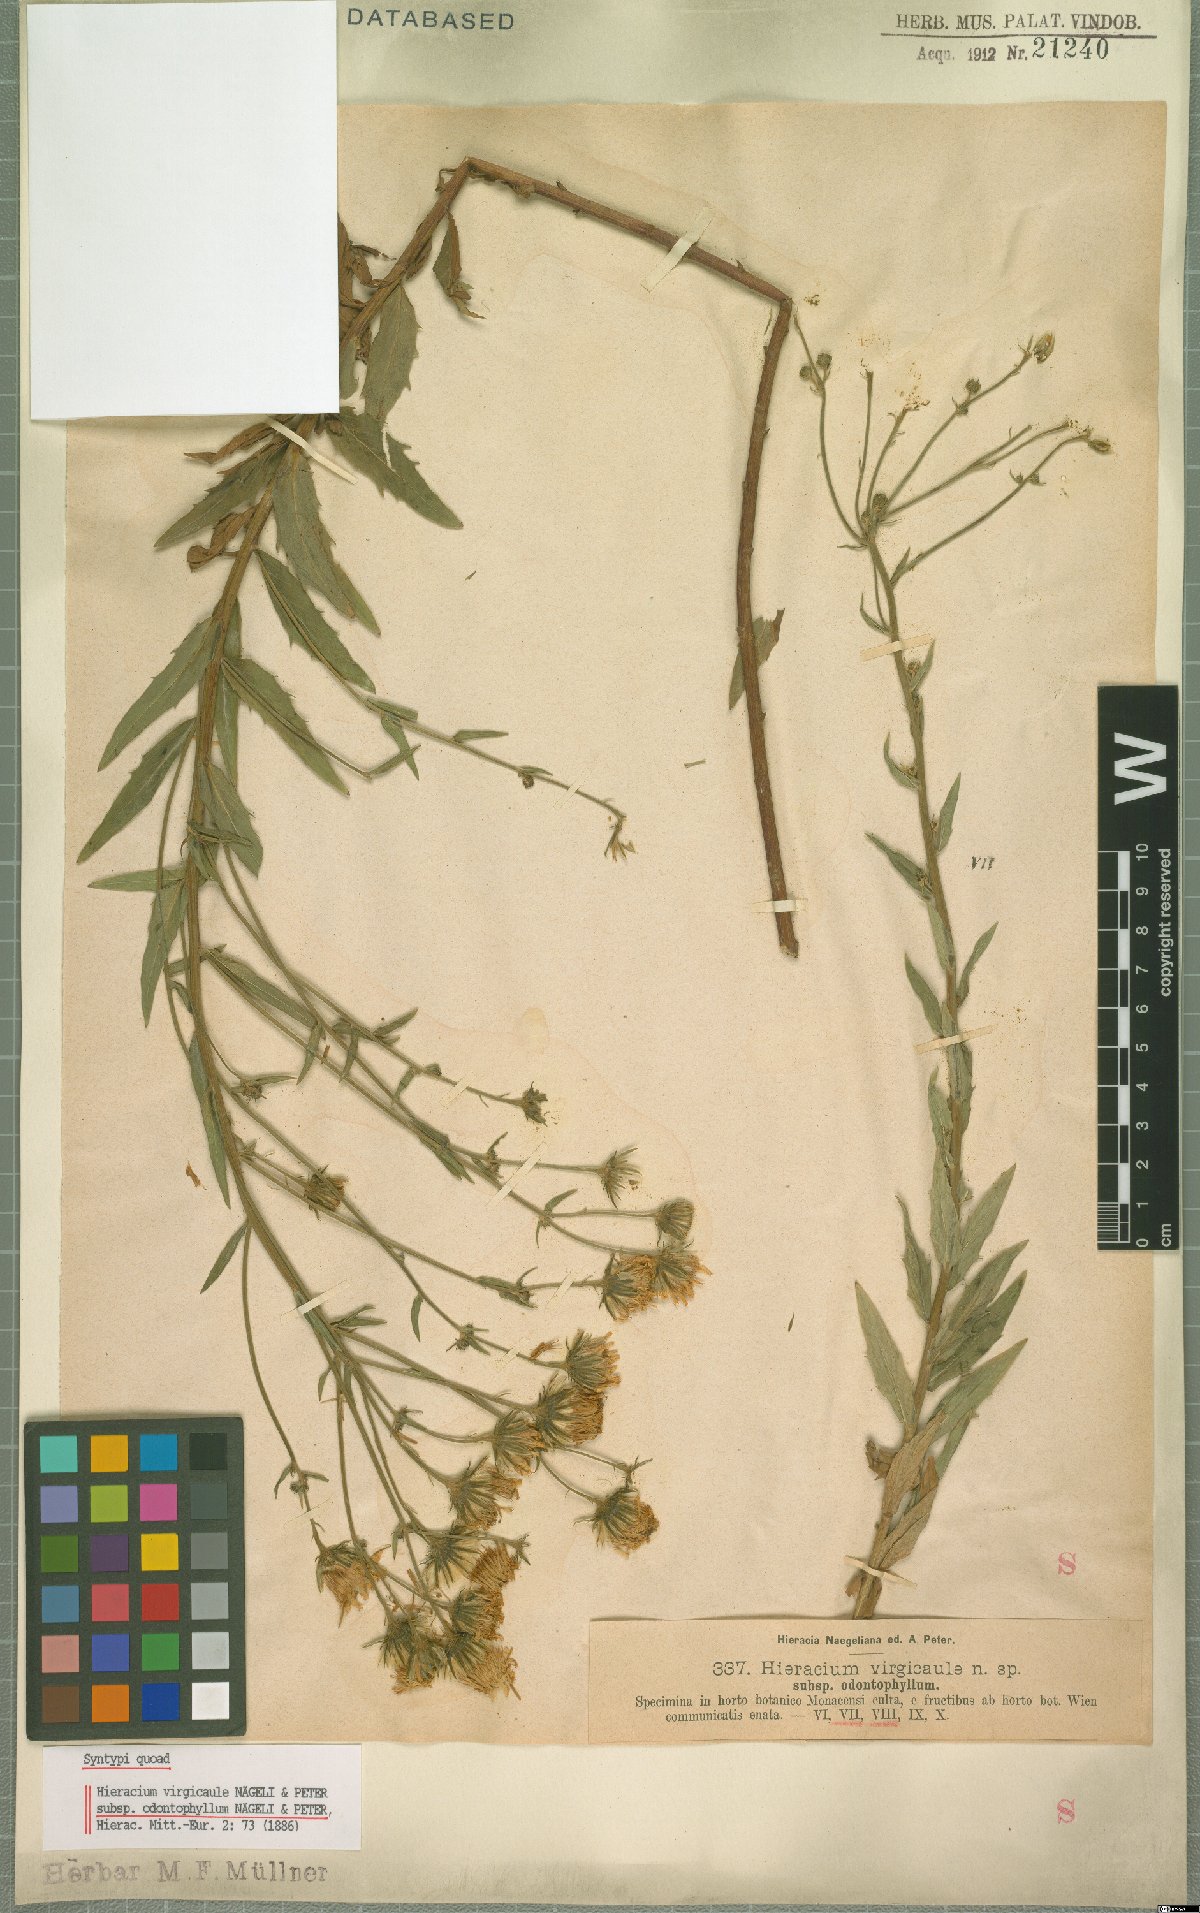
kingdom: Plantae
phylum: Tracheophyta
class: Magnoliopsida
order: Asterales
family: Asteraceae
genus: Hieracium
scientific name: Hieracium virgicaule
